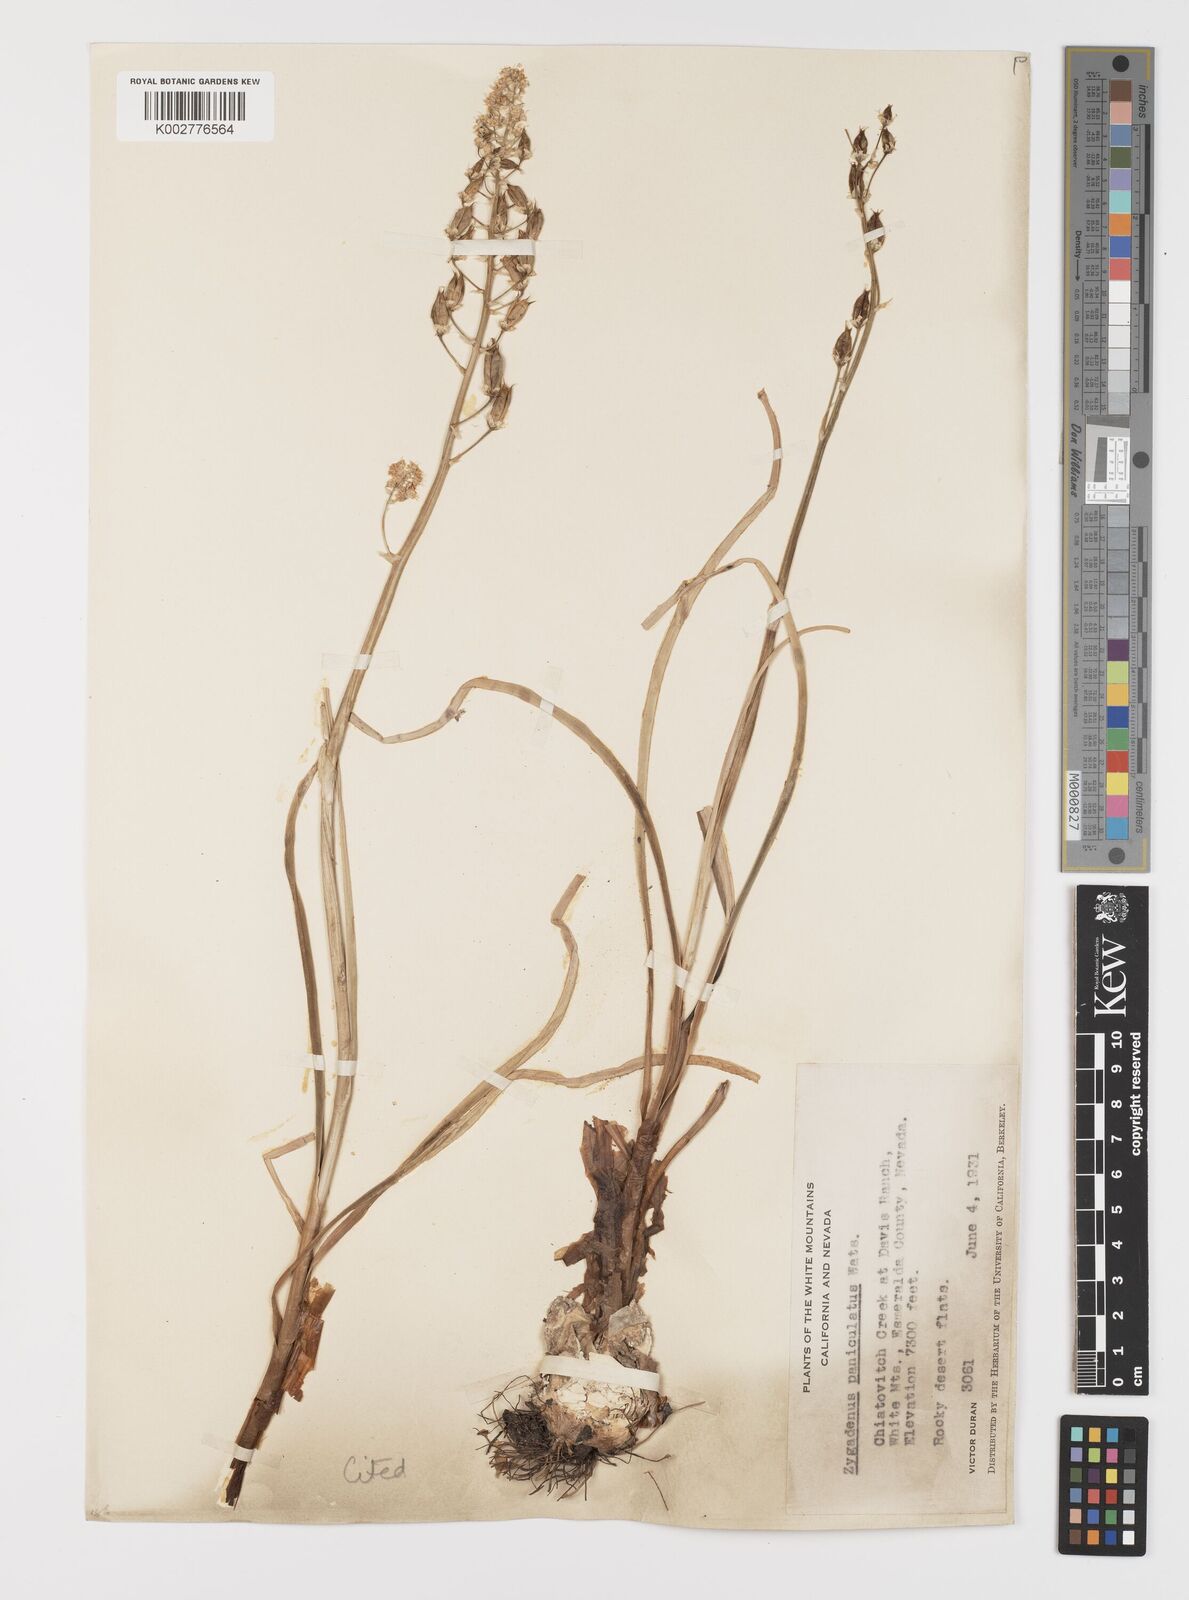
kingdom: Plantae
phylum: Tracheophyta
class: Liliopsida
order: Liliales
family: Melanthiaceae
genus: Toxicoscordion
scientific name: Toxicoscordion paniculatum
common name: Foothill death camas
